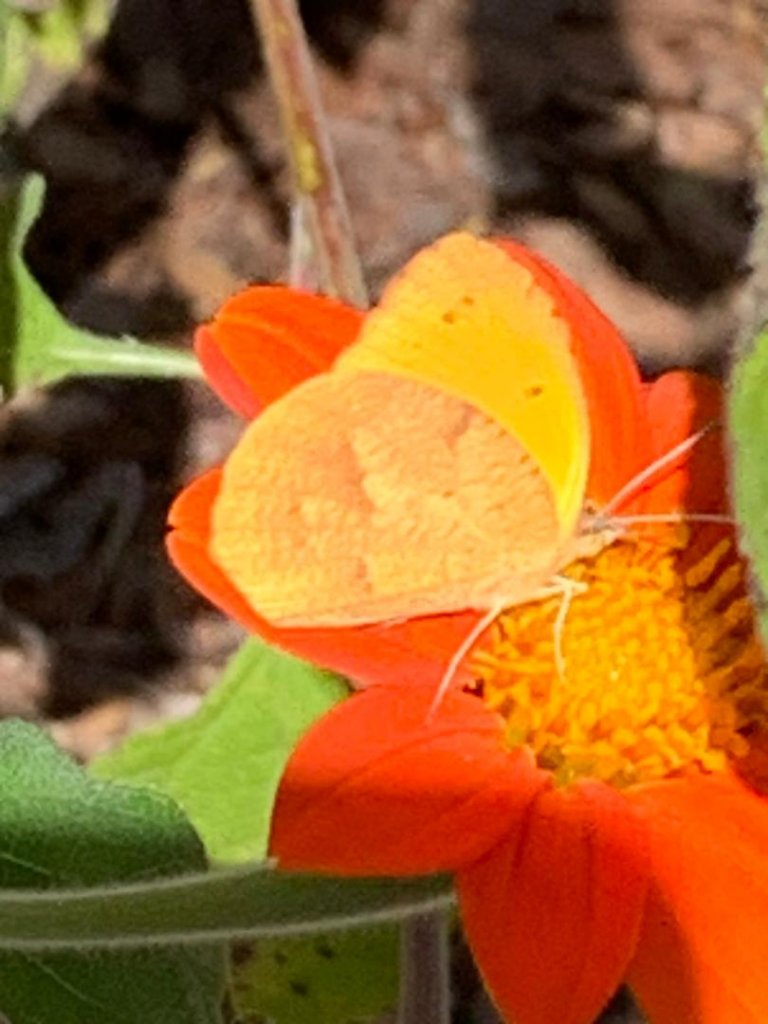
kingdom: Animalia
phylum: Arthropoda
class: Insecta
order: Lepidoptera
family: Pieridae
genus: Abaeis
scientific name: Abaeis nicippe
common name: Sleepy Orange
